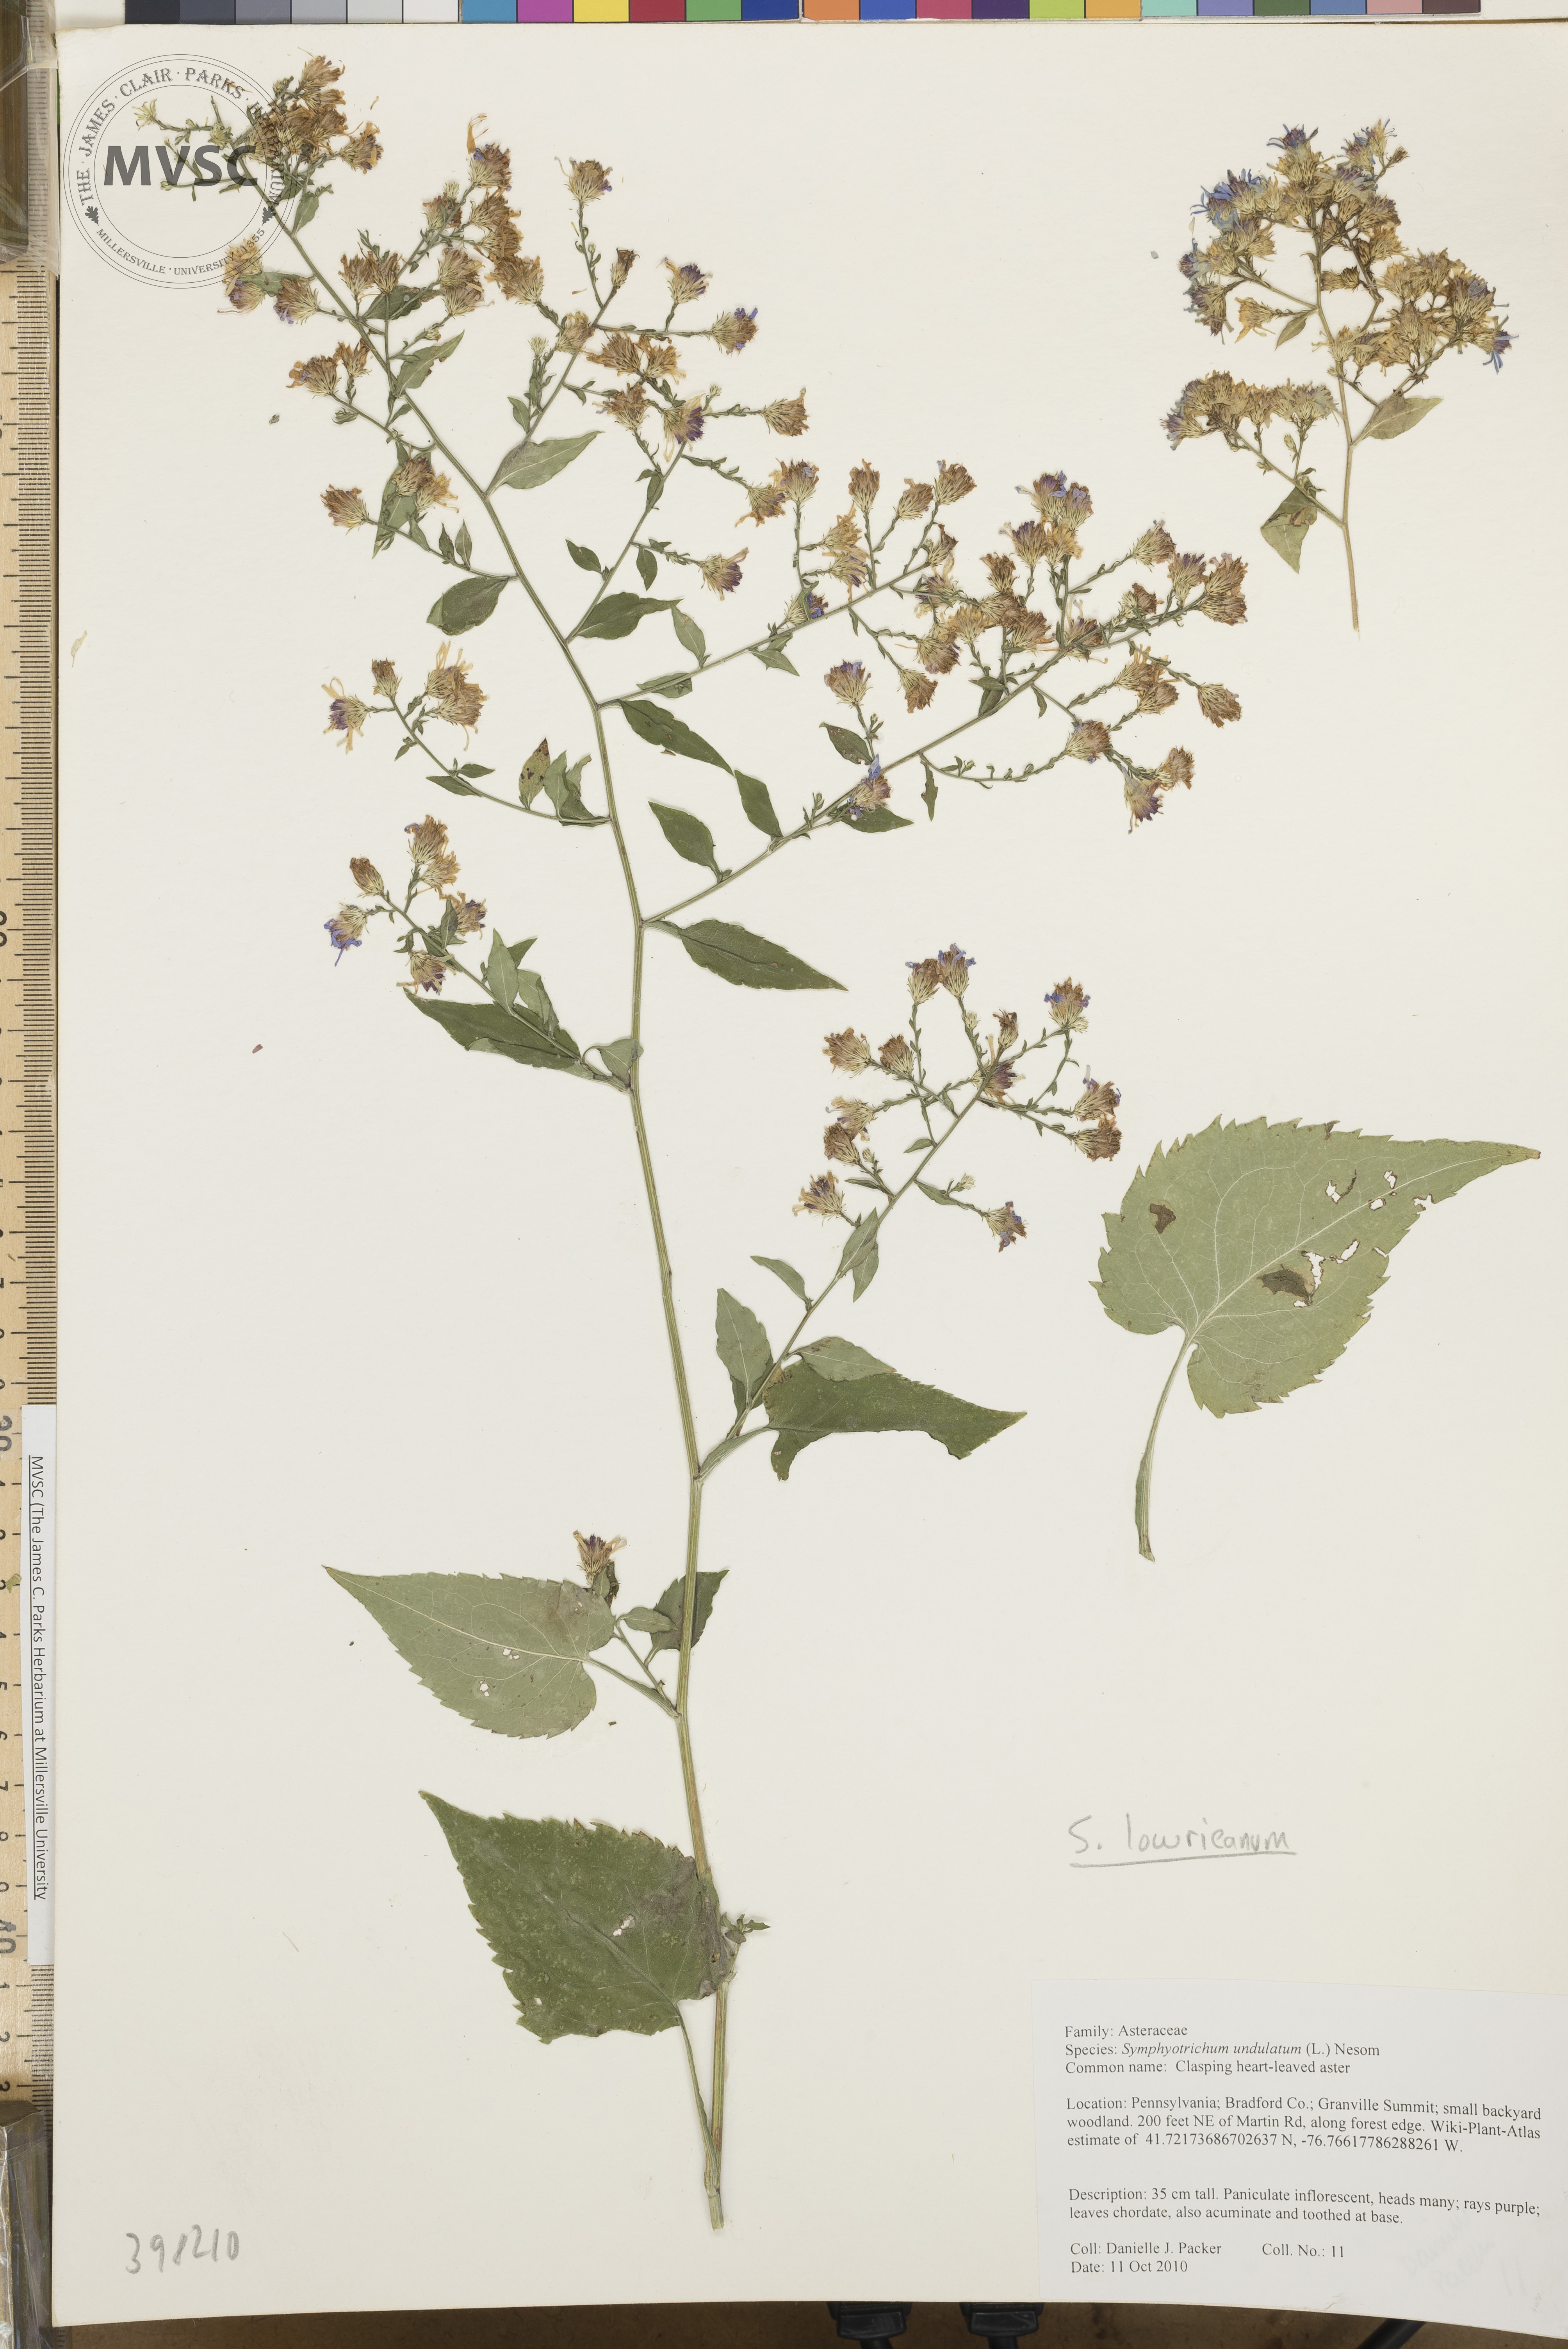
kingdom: Plantae
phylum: Tracheophyta
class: Magnoliopsida
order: Asterales
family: Asteraceae
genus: Symphyotrichum
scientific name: Symphyotrichum cordifolium
